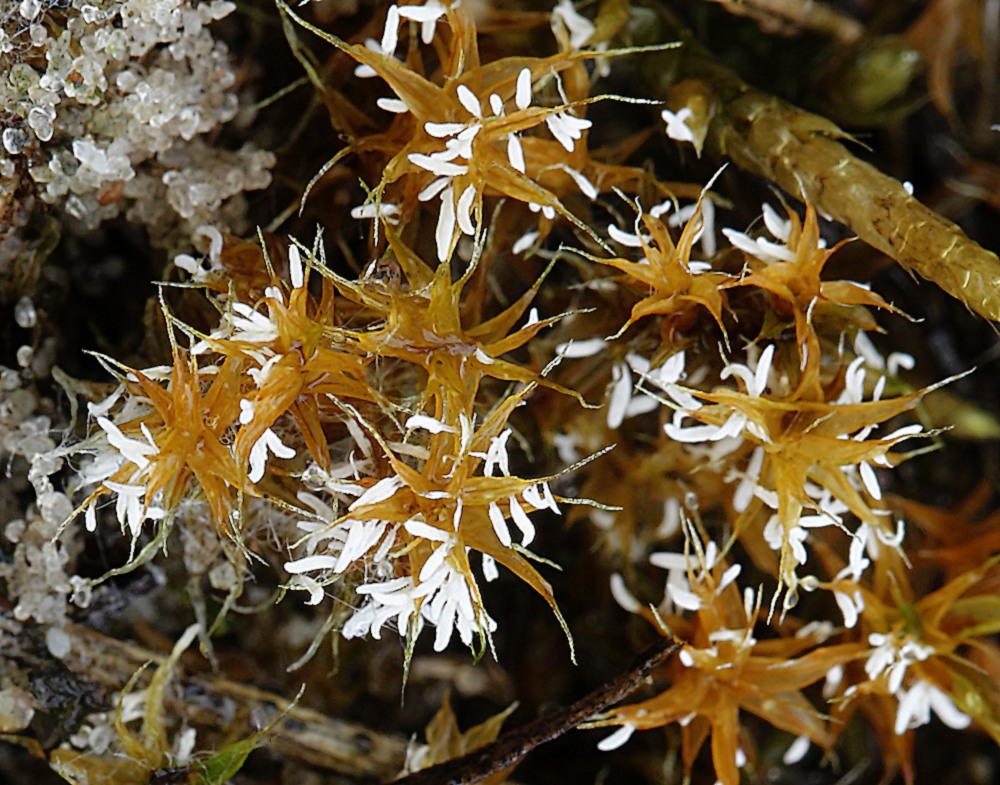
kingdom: Fungi
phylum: Basidiomycota
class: Agaricomycetes
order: Hymenochaetales
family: Rickenellaceae
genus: Bryopistillaria
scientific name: Bryopistillaria sagittiformis
